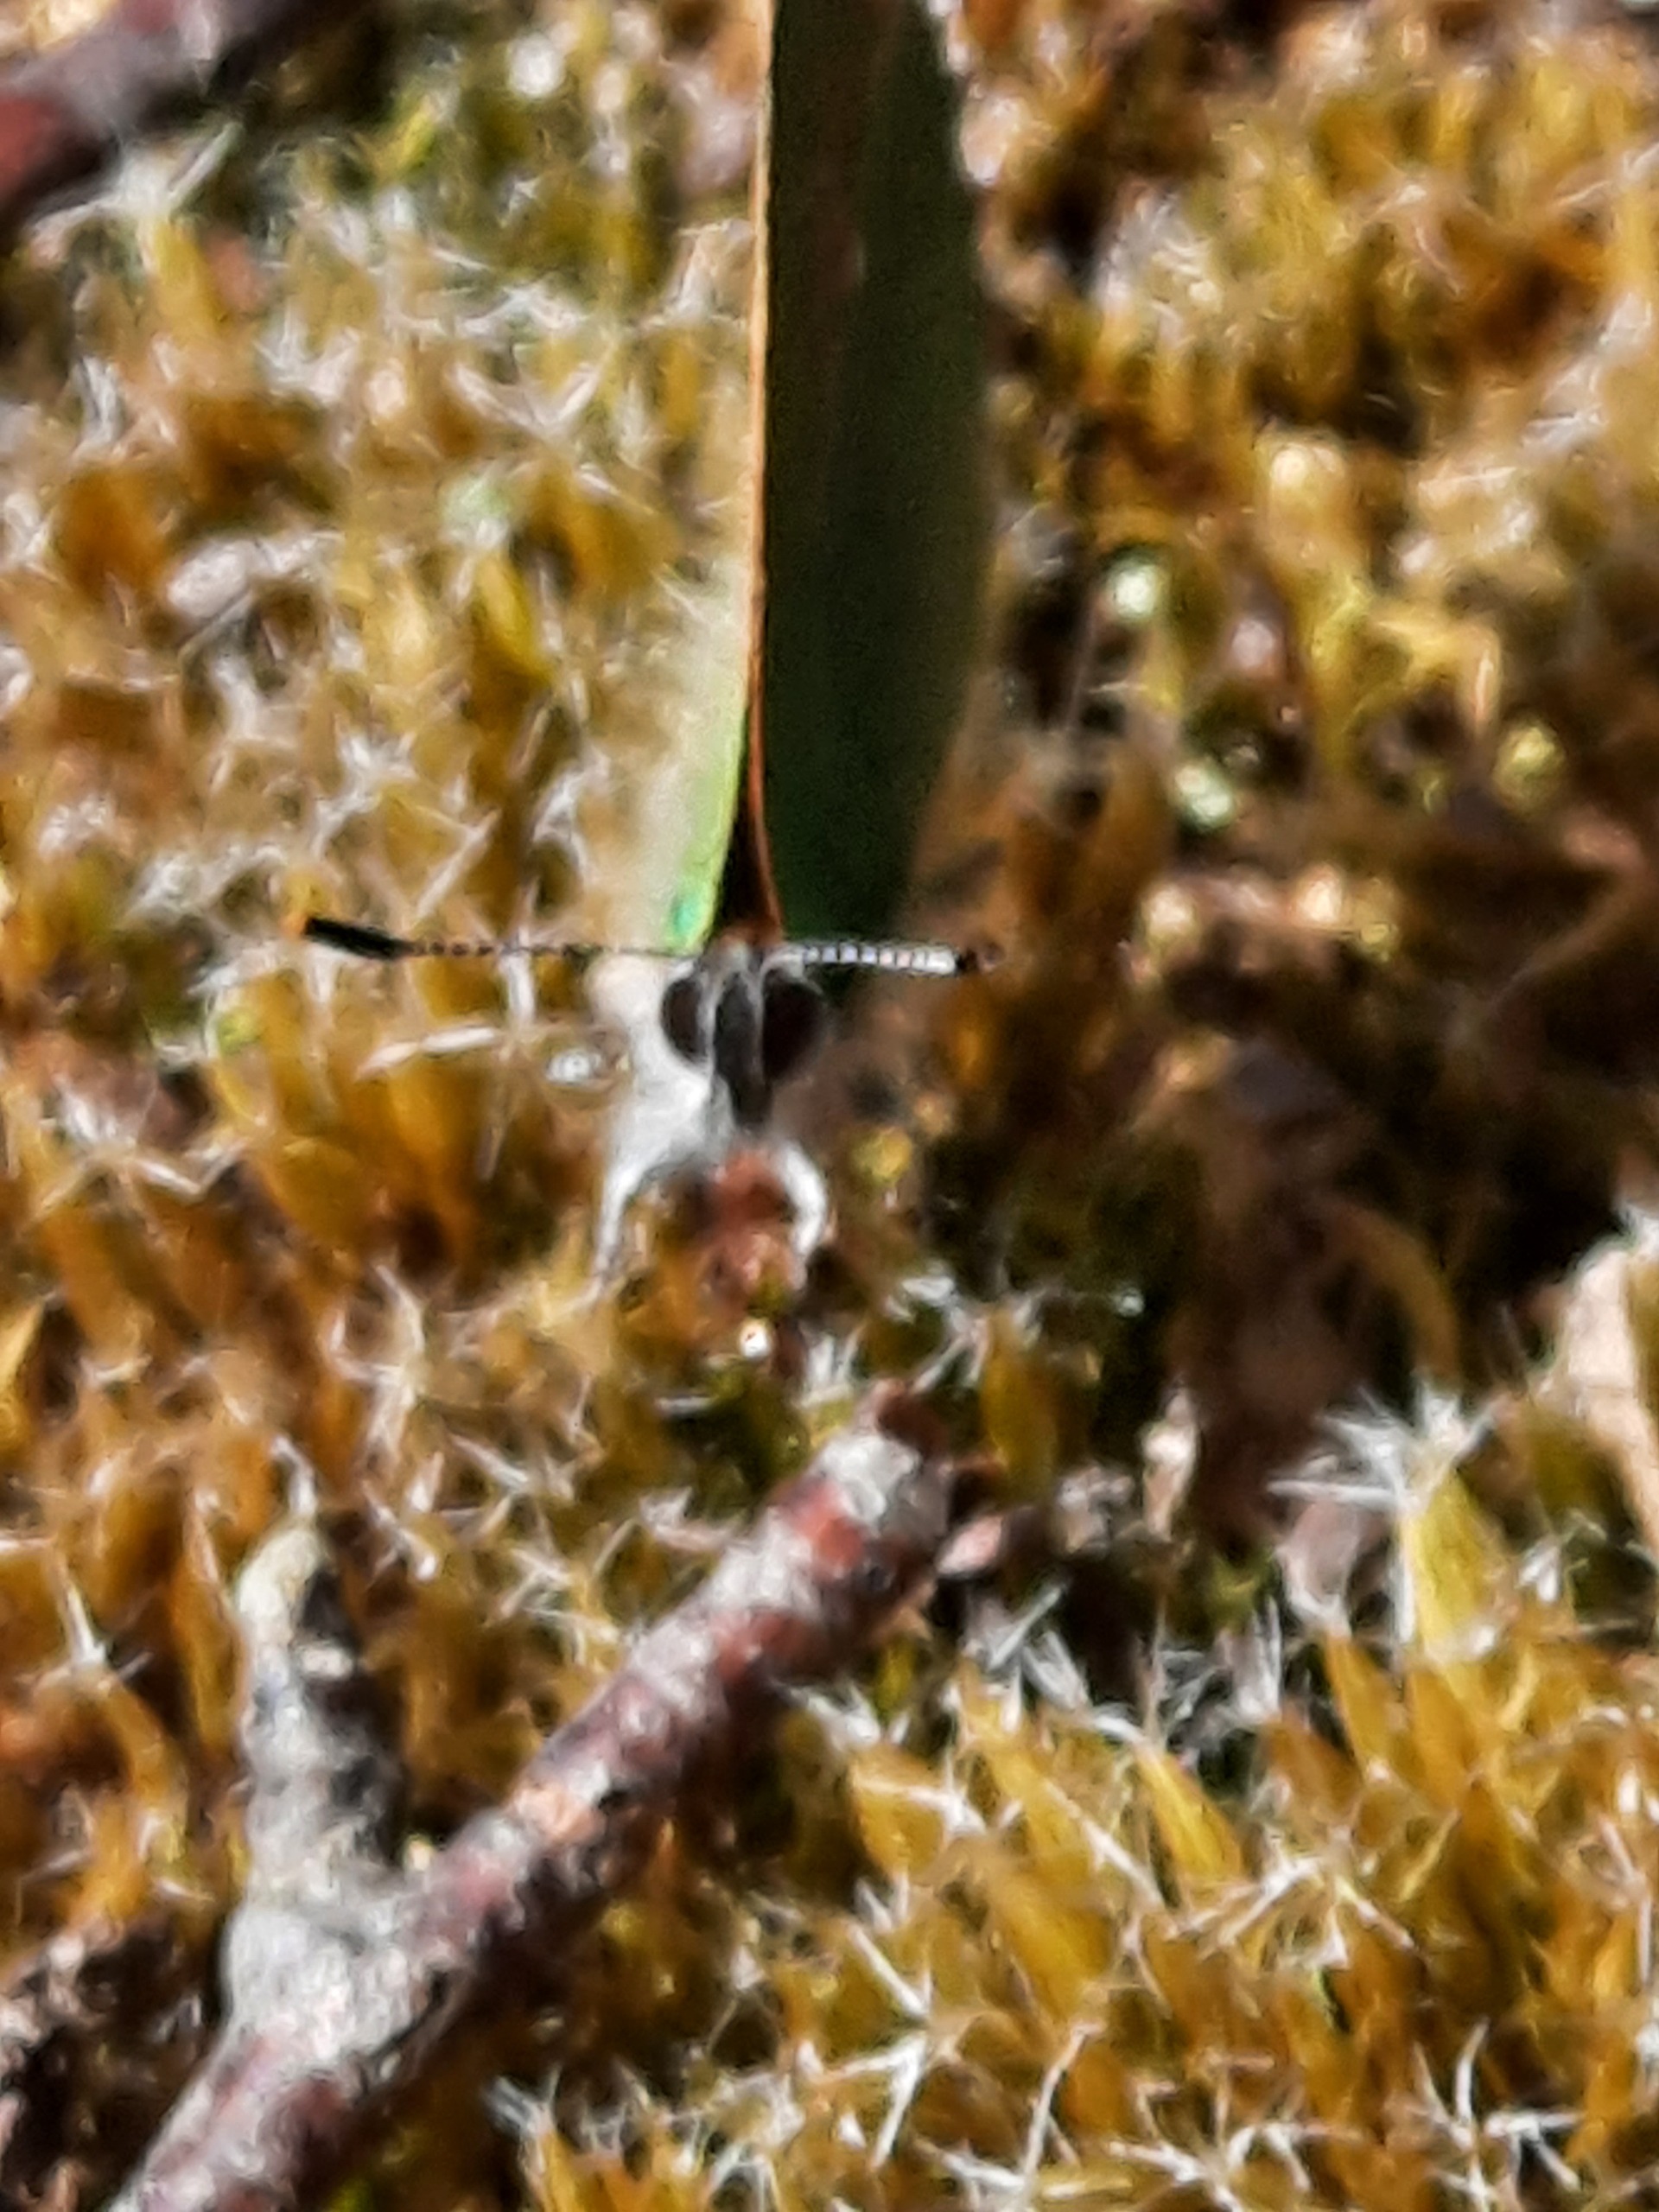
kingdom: Animalia
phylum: Arthropoda
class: Insecta
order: Lepidoptera
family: Lycaenidae
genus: Callophrys
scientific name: Callophrys rubi
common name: Grøn busksommerfugl
